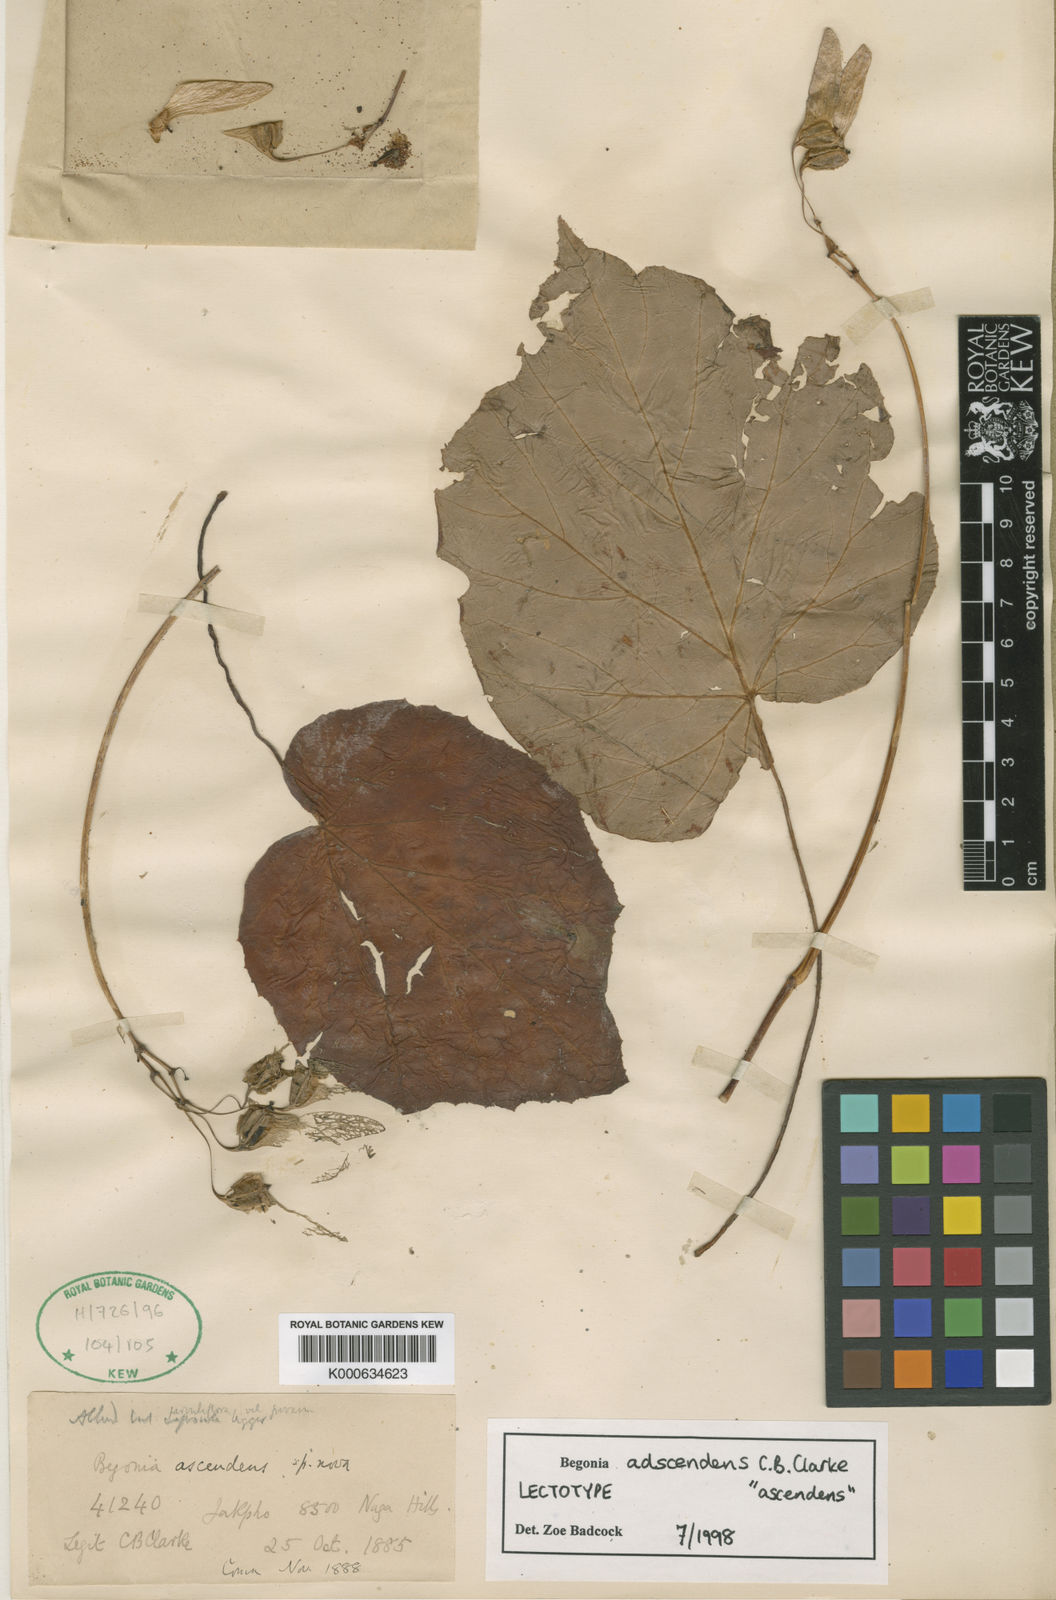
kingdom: Plantae
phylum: Tracheophyta
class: Magnoliopsida
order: Cucurbitales
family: Begoniaceae
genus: Begonia
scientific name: Begonia adscendens
